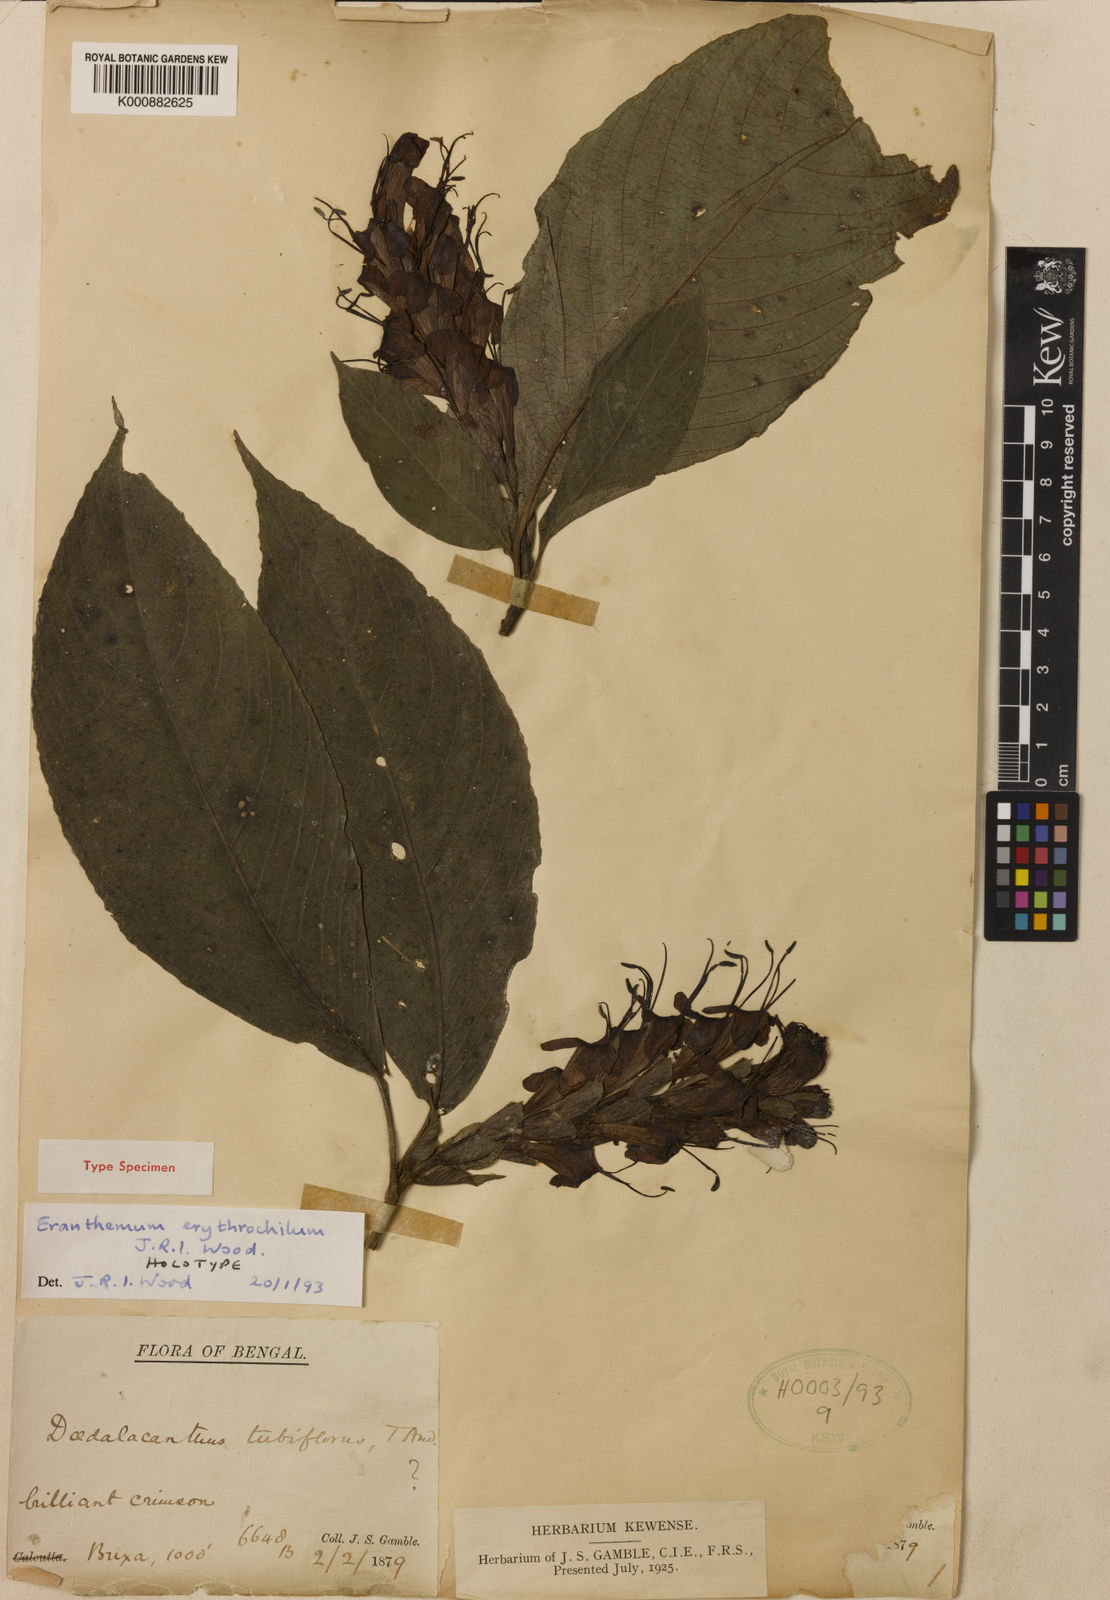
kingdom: Plantae
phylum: Tracheophyta
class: Magnoliopsida
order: Lamiales
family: Acanthaceae
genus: Eranthemum
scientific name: Eranthemum erythrochilum
